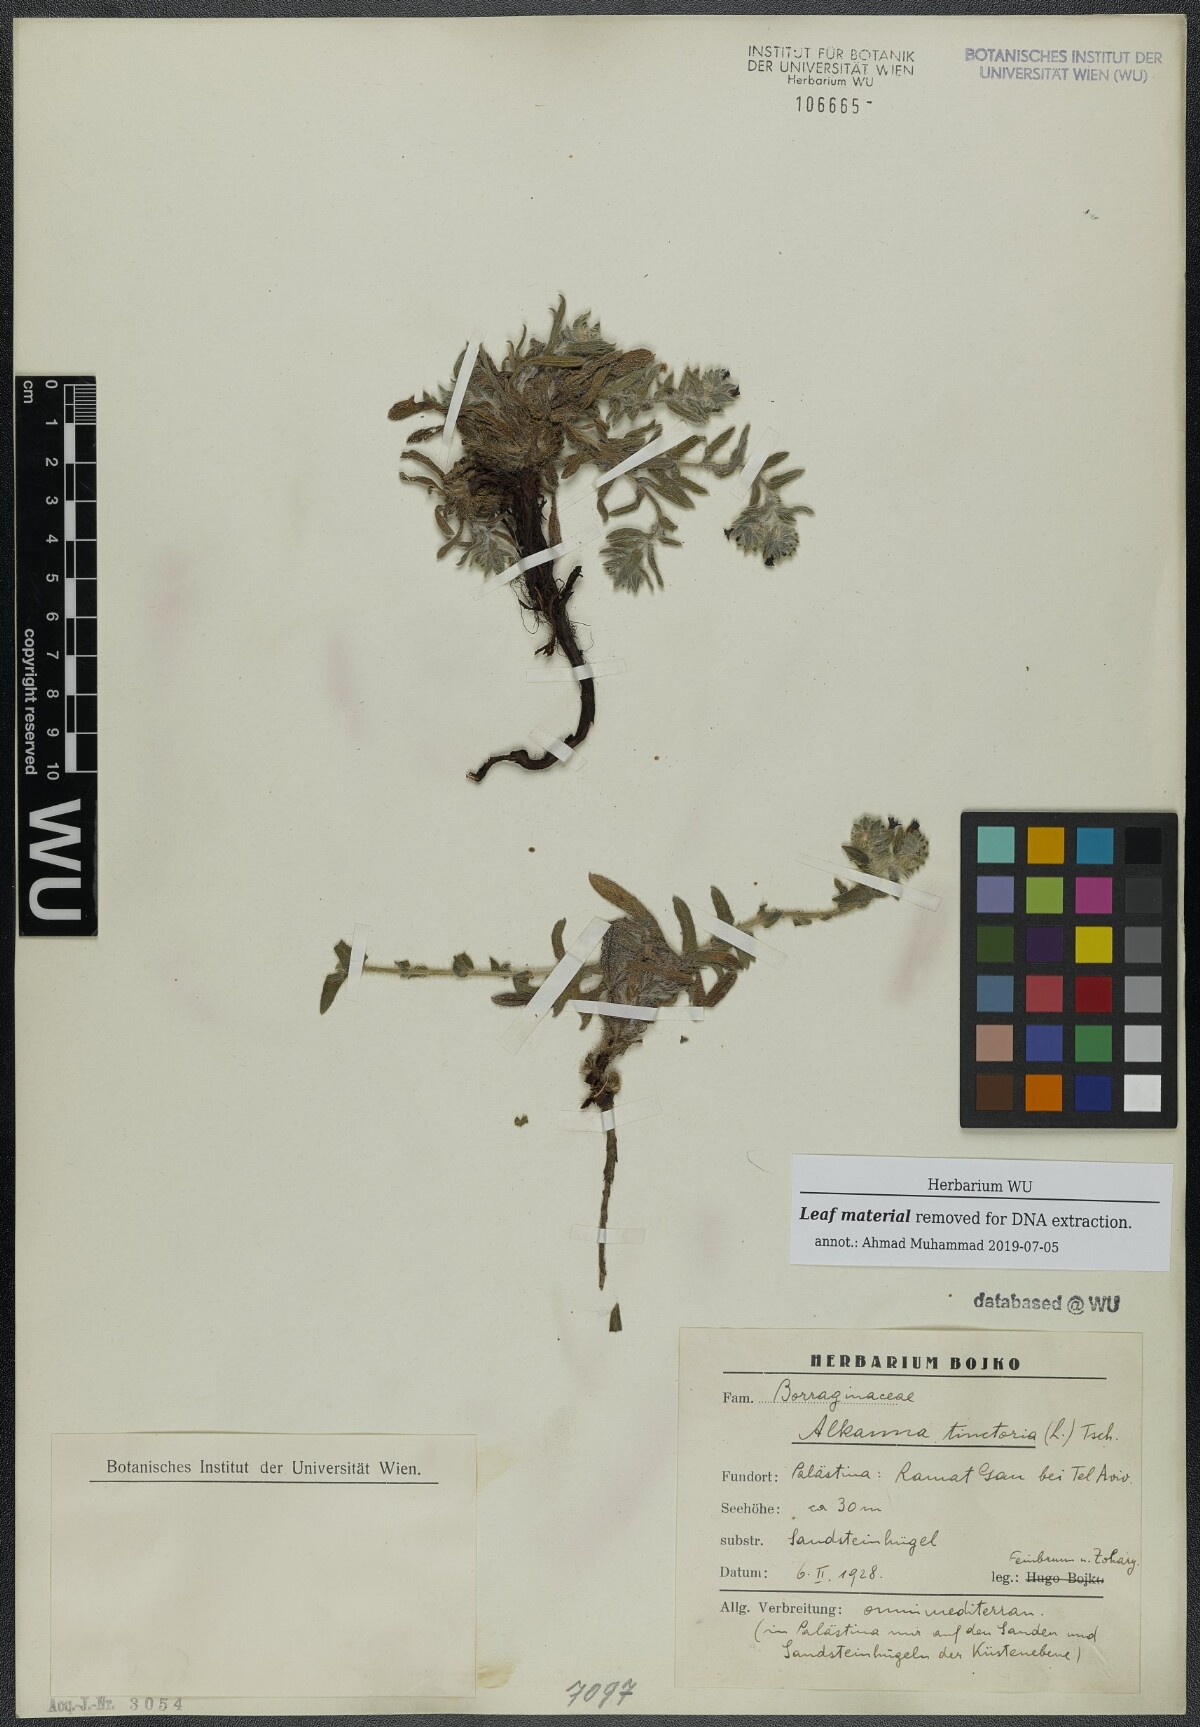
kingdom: Plantae
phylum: Tracheophyta
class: Magnoliopsida
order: Boraginales
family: Boraginaceae
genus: Alkanna
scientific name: Alkanna tinctoria
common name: Dyer's-alkanet
